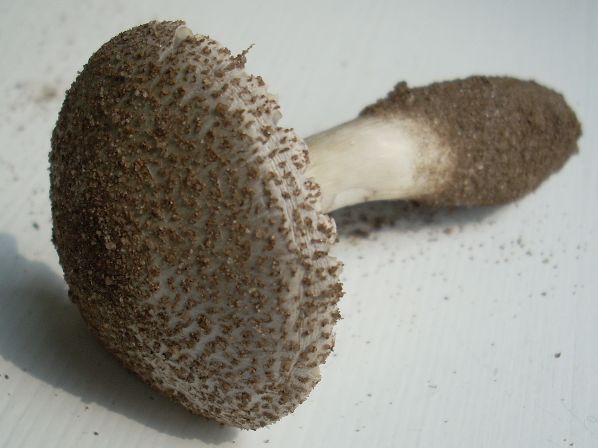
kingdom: Fungi
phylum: Basidiomycota
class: Agaricomycetes
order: Agaricales
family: Strophariaceae
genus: Stropharia
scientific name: Stropharia rugosoannulata
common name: rødbrun bredblad
